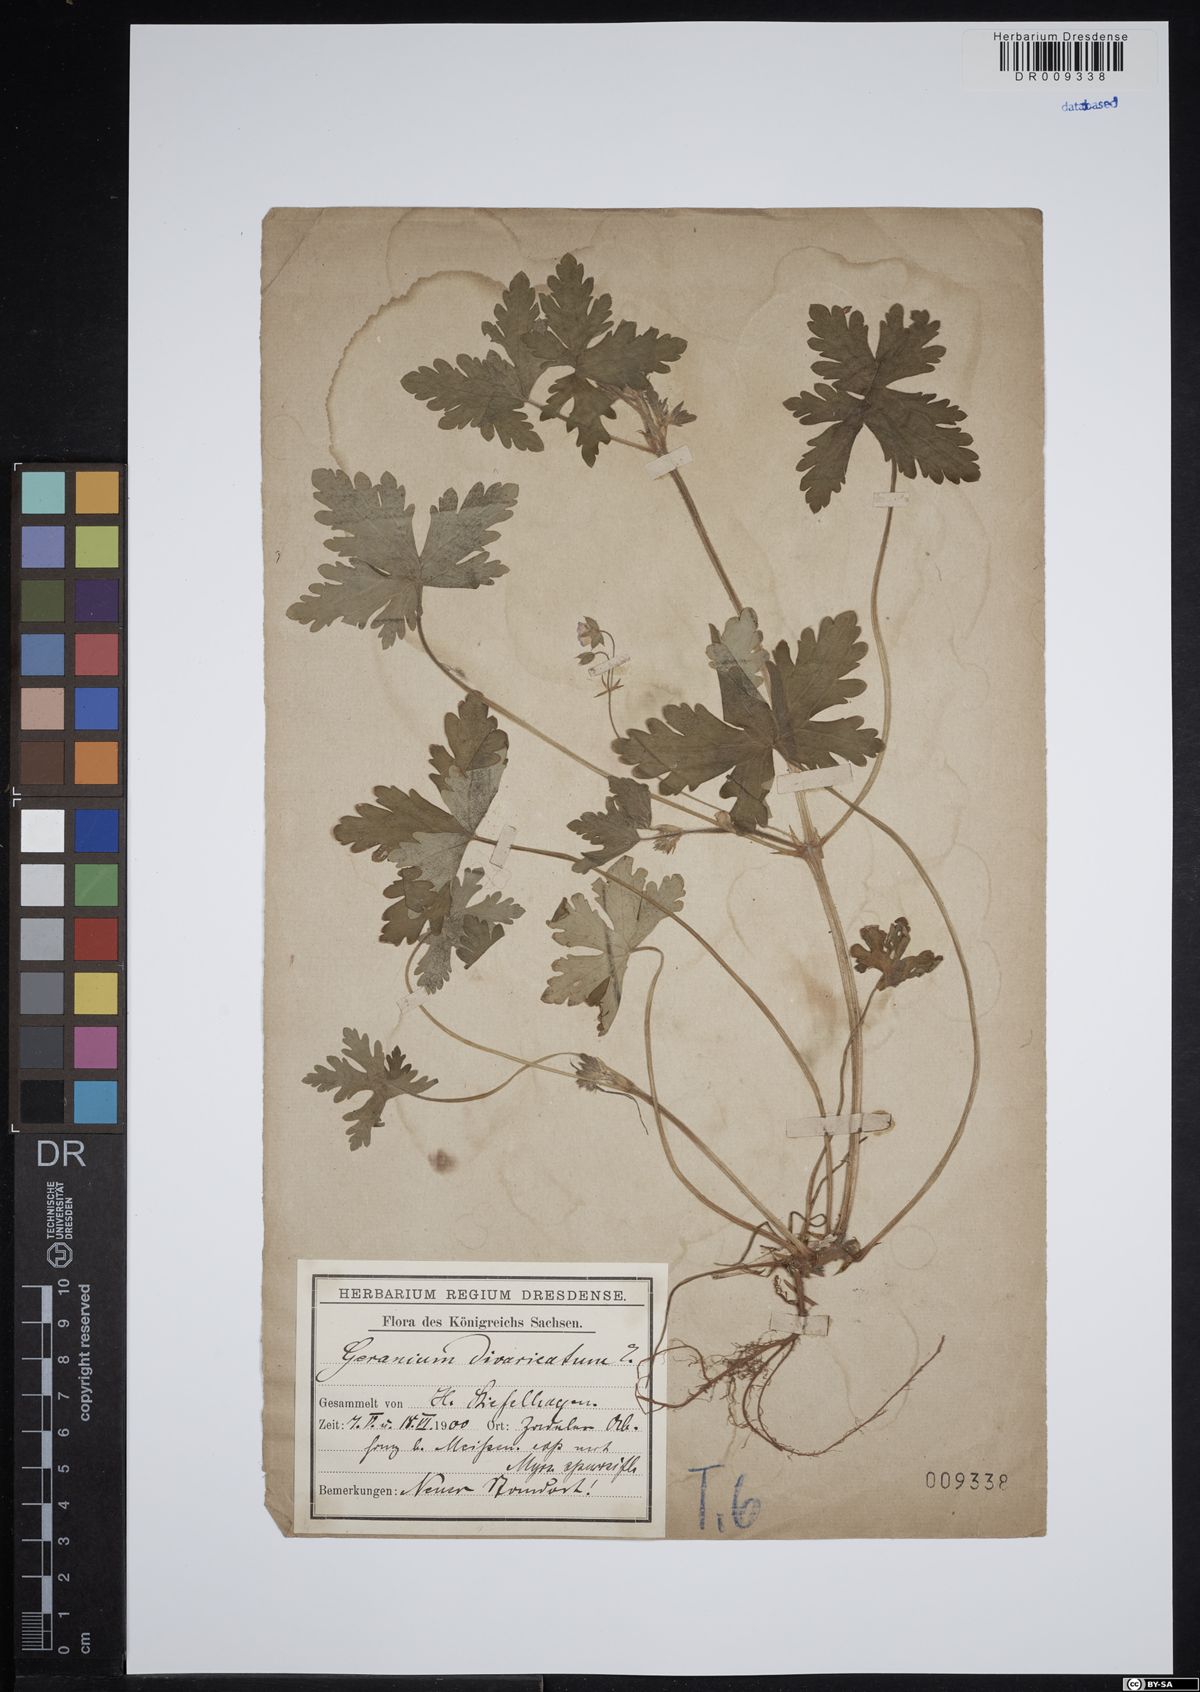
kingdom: Plantae
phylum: Tracheophyta
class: Magnoliopsida
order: Geraniales
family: Geraniaceae
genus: Geranium
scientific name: Geranium divaricatum
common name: Spreading crane's-bill
